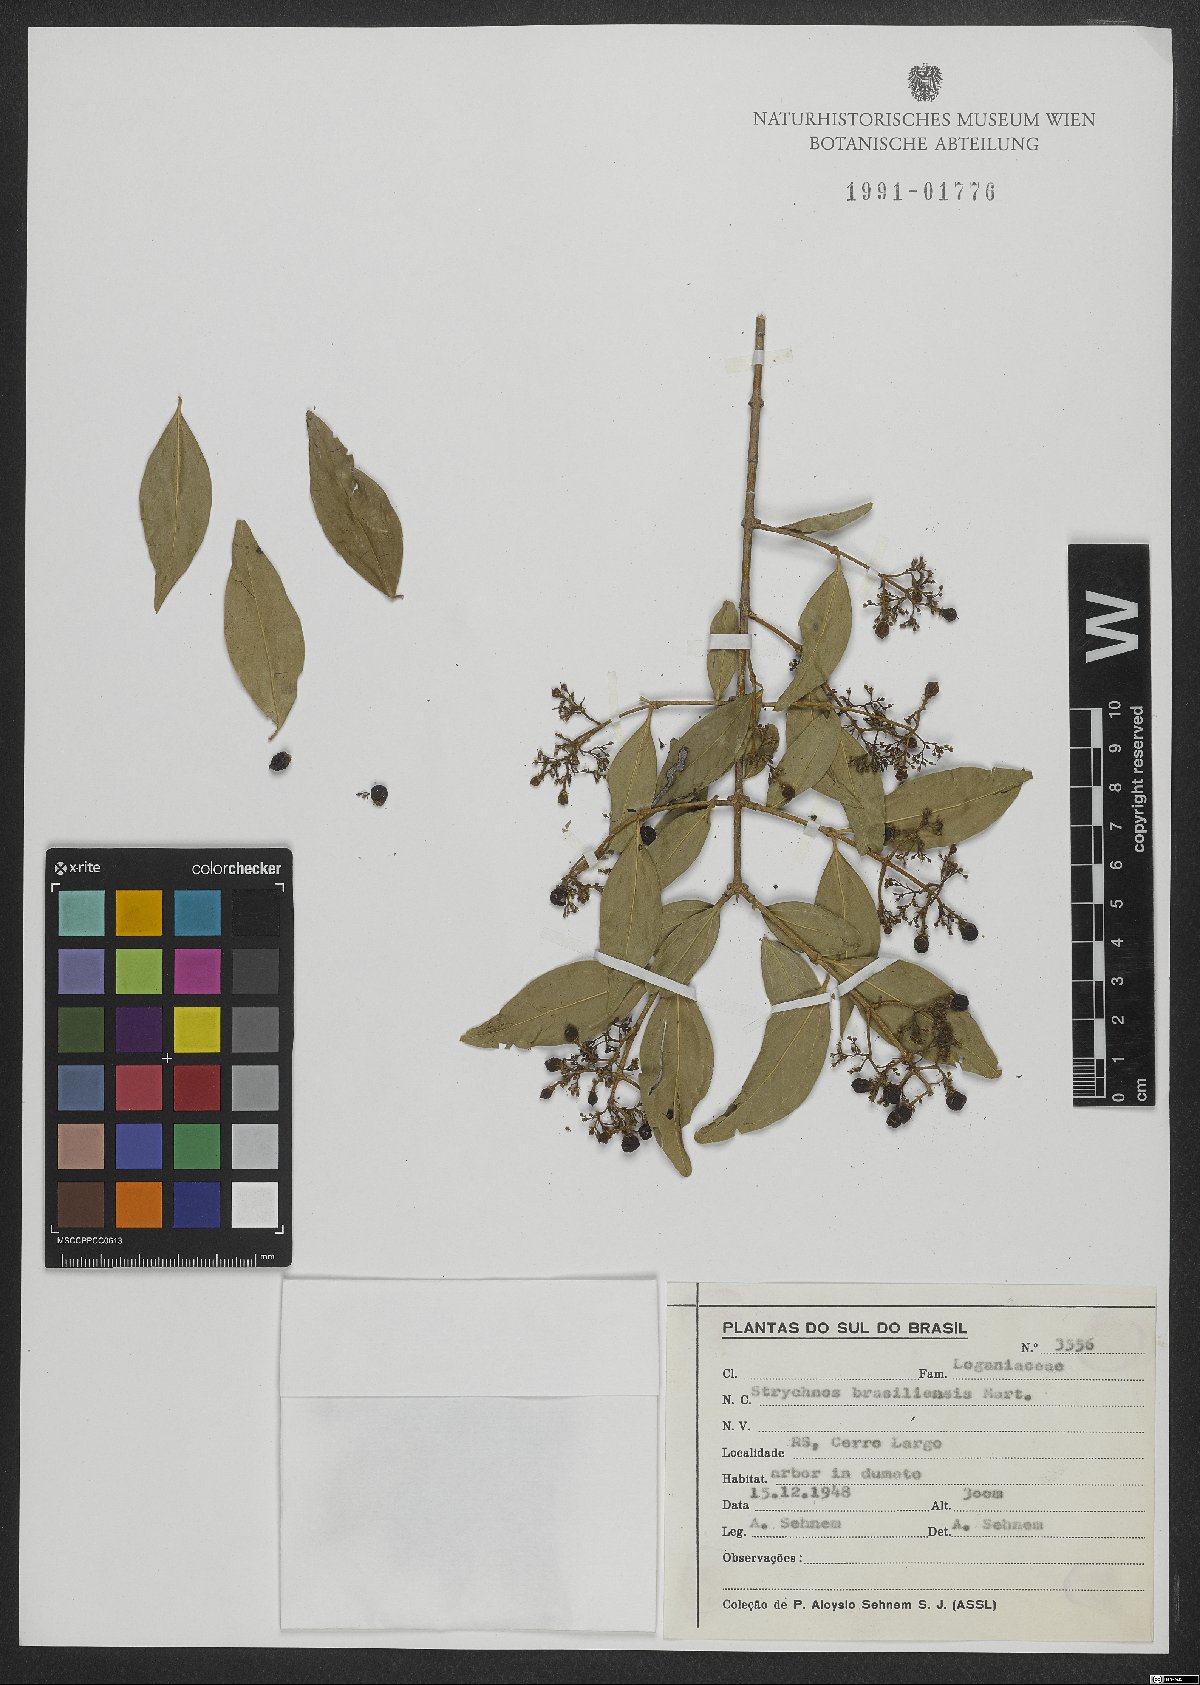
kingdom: Plantae
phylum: Tracheophyta
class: Magnoliopsida
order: Gentianales
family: Loganiaceae
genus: Strychnos
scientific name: Strychnos brasiliensis
